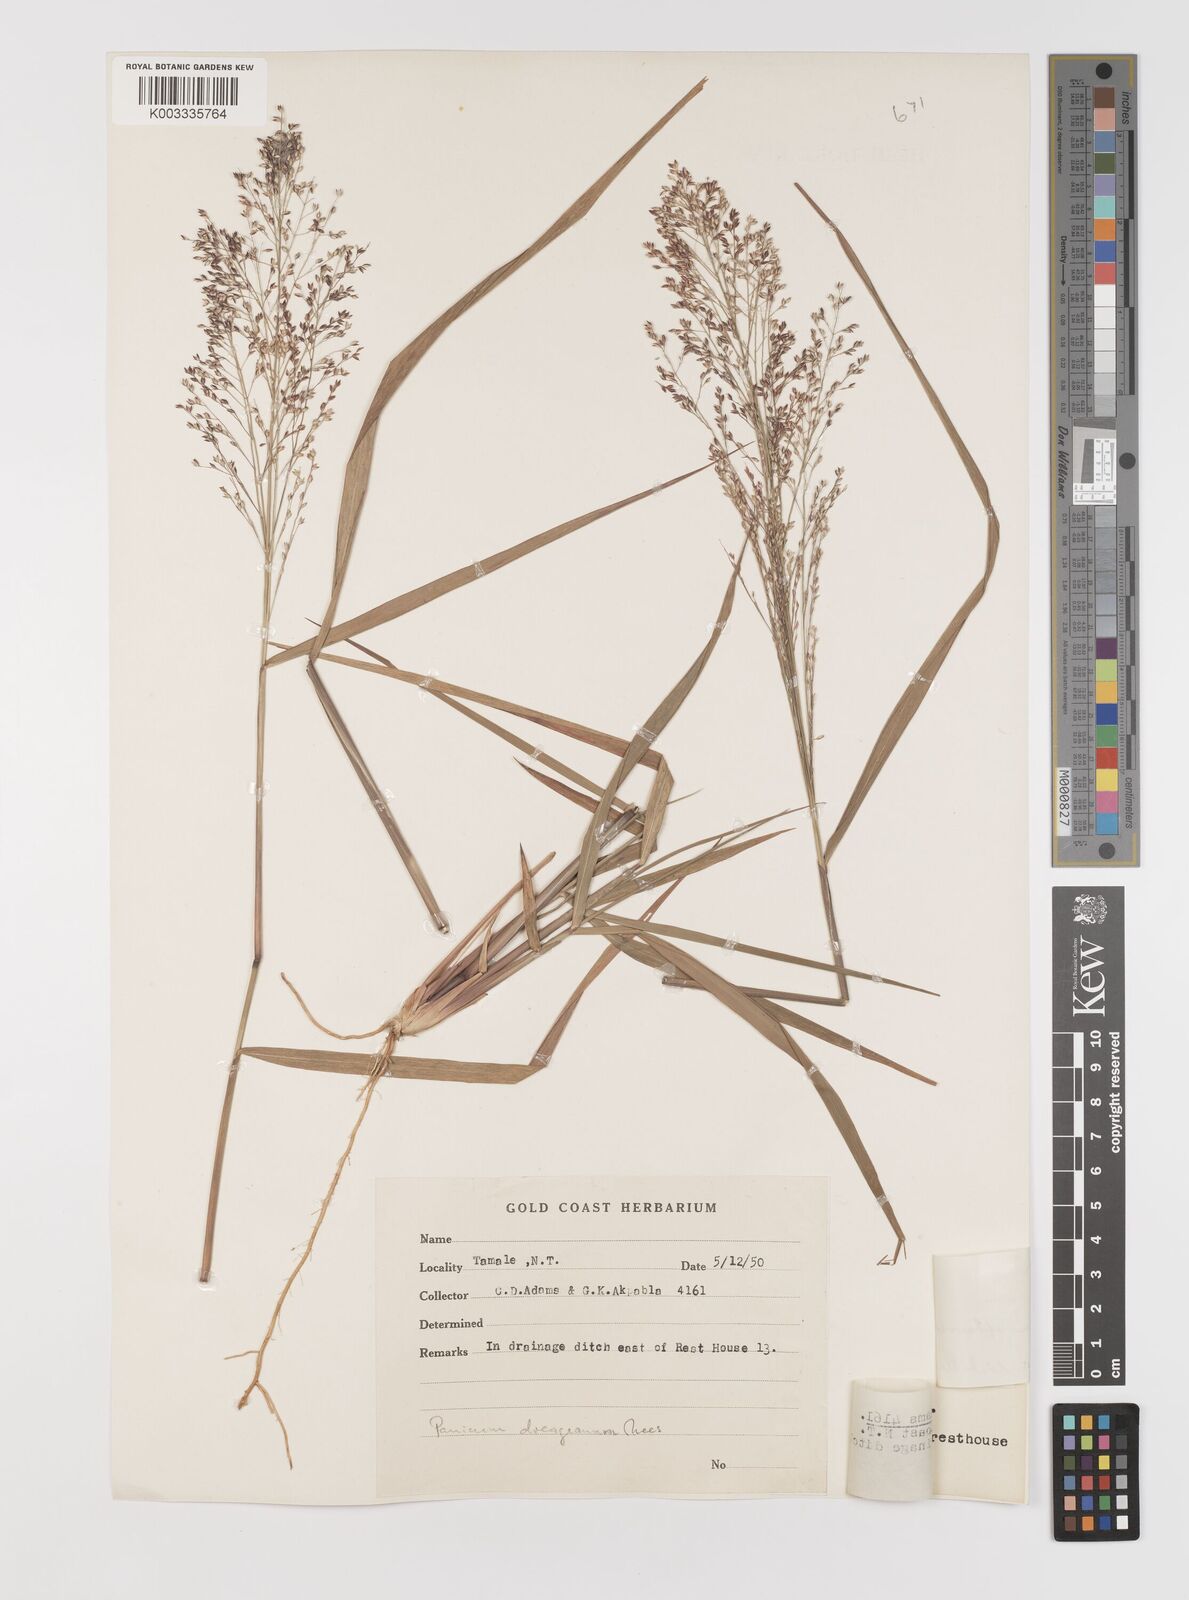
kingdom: Plantae
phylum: Tracheophyta
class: Liliopsida
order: Poales
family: Poaceae
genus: Panicum
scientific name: Panicum fluviicola
